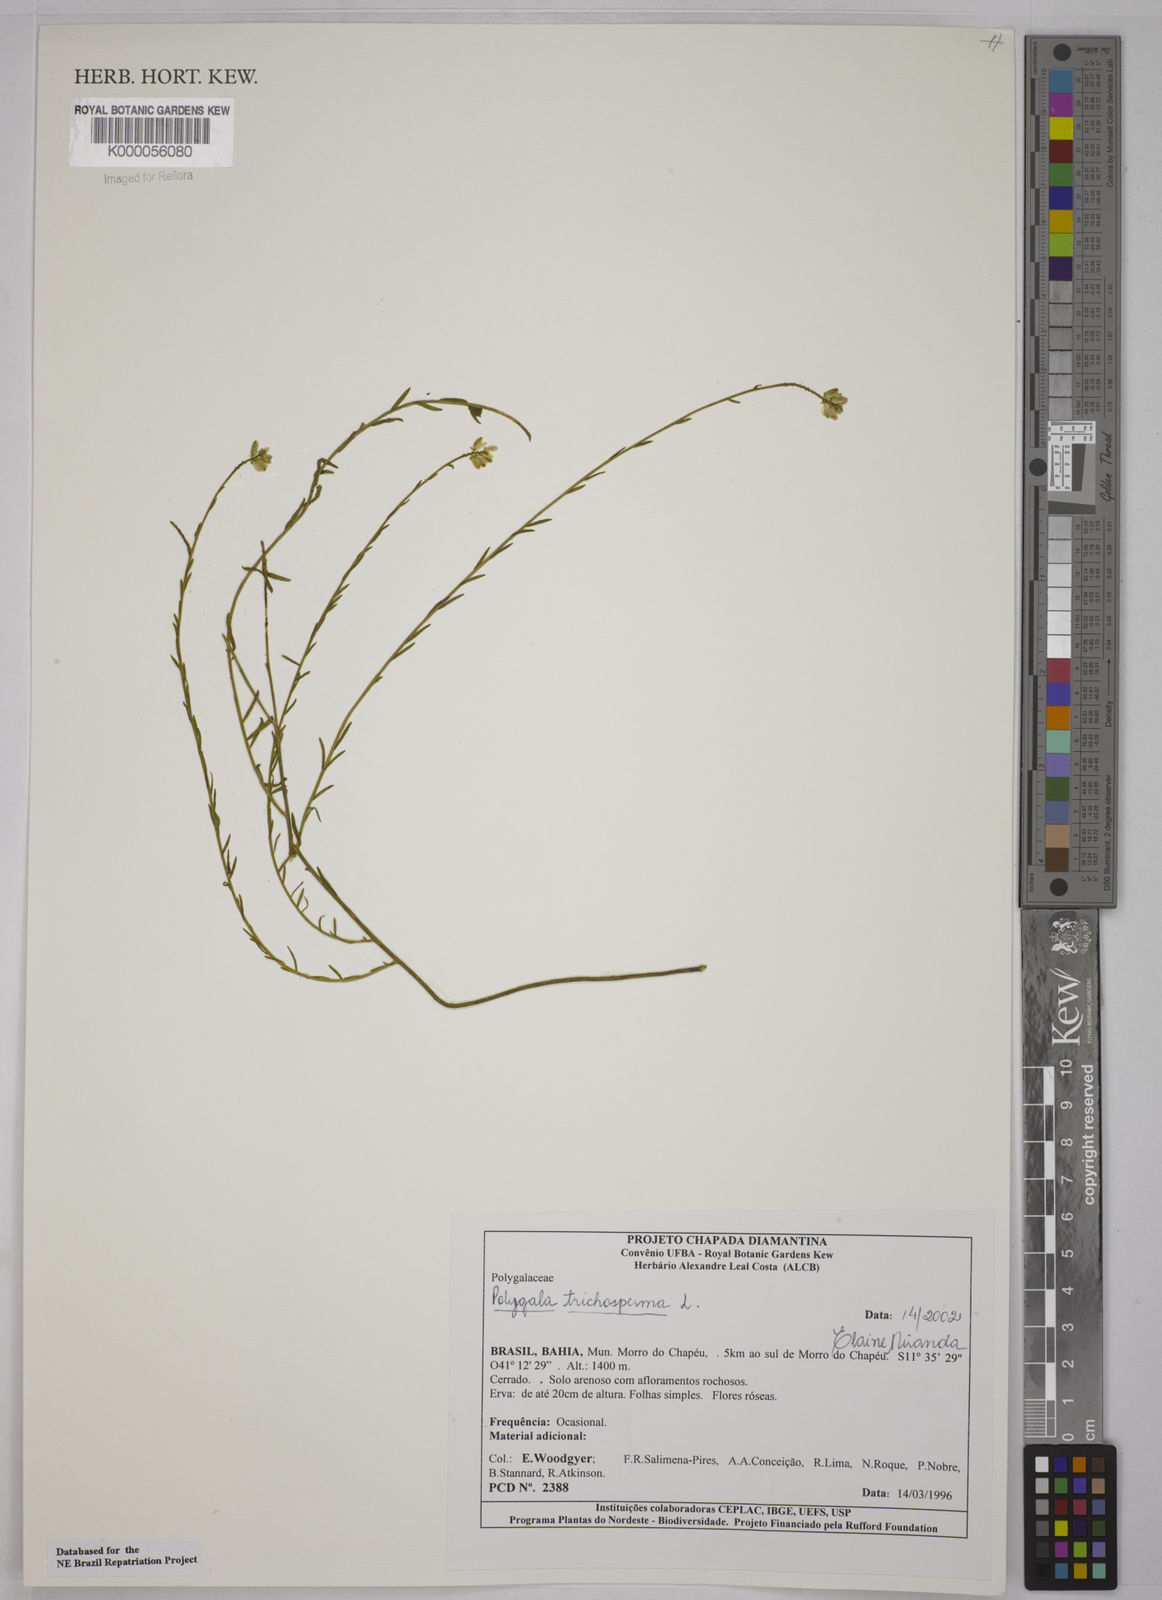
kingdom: Plantae
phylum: Tracheophyta
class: Magnoliopsida
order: Fabales
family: Polygalaceae
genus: Polygala
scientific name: Polygala
